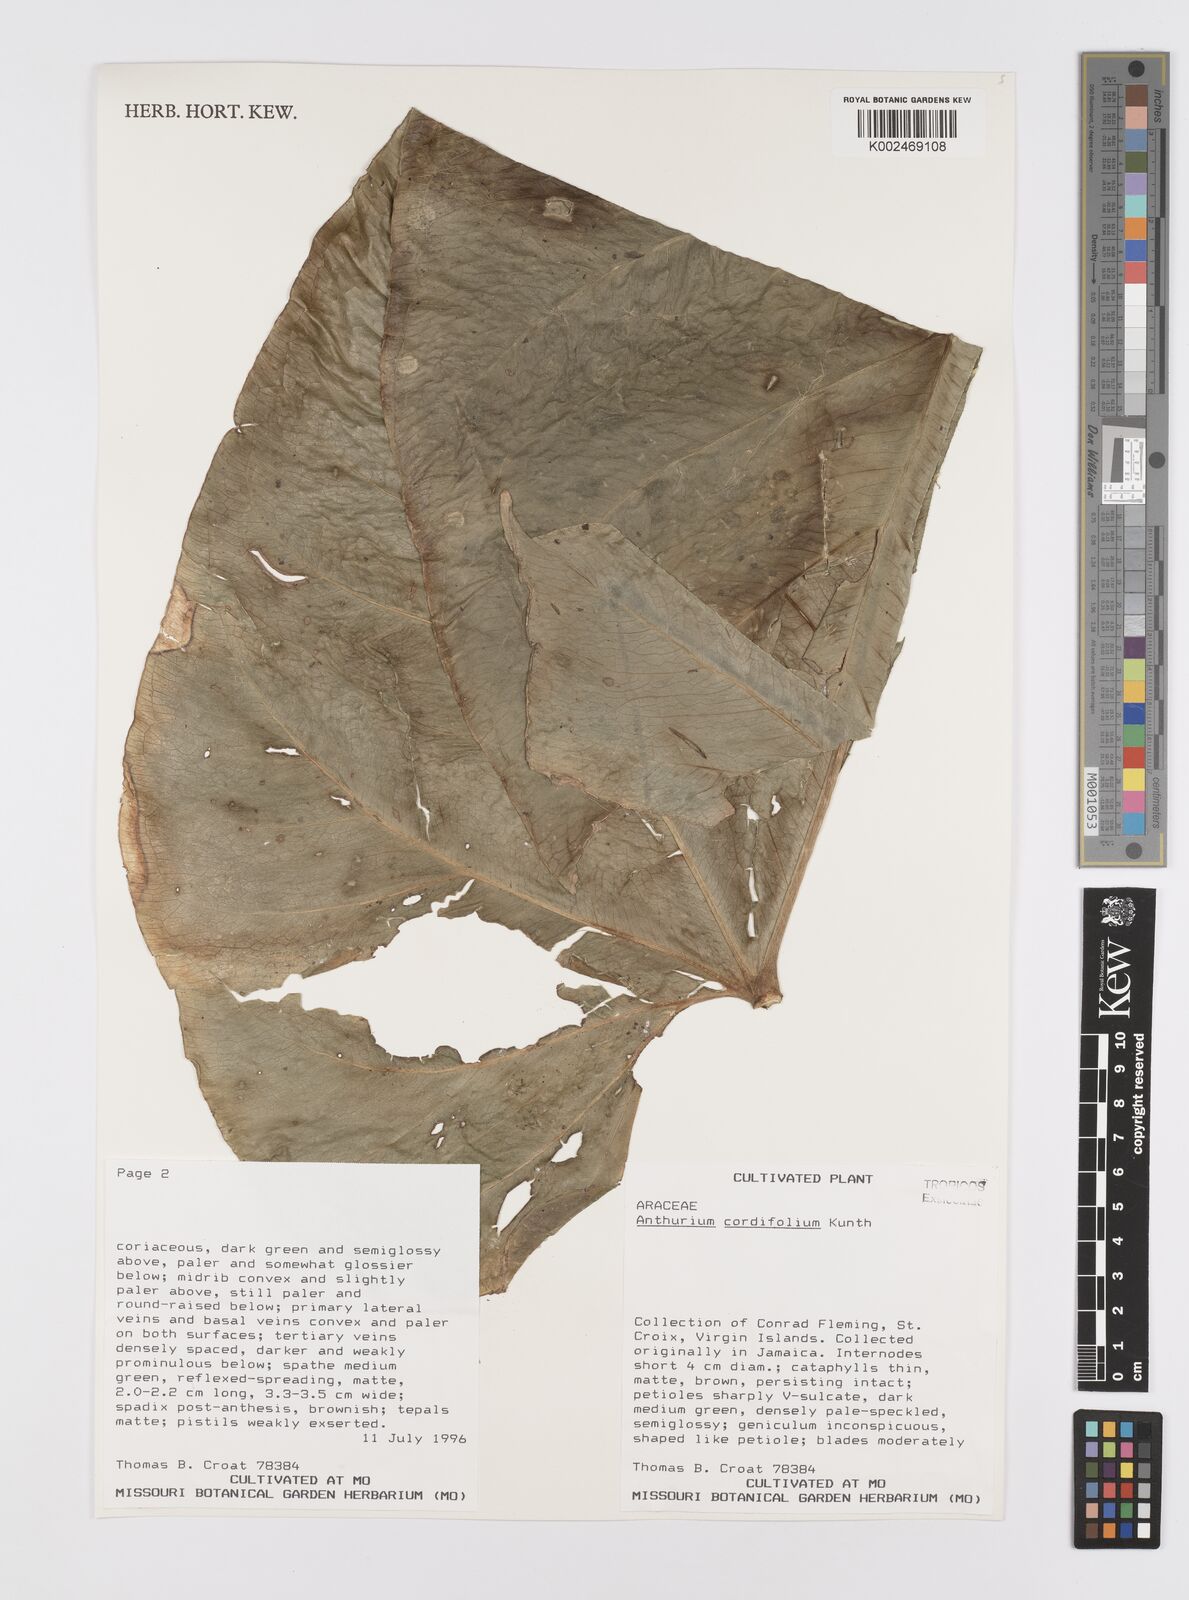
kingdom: Plantae
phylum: Tracheophyta
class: Liliopsida
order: Alismatales
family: Araceae
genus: Anthurium
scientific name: Anthurium grandifolium
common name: Monkey tail
